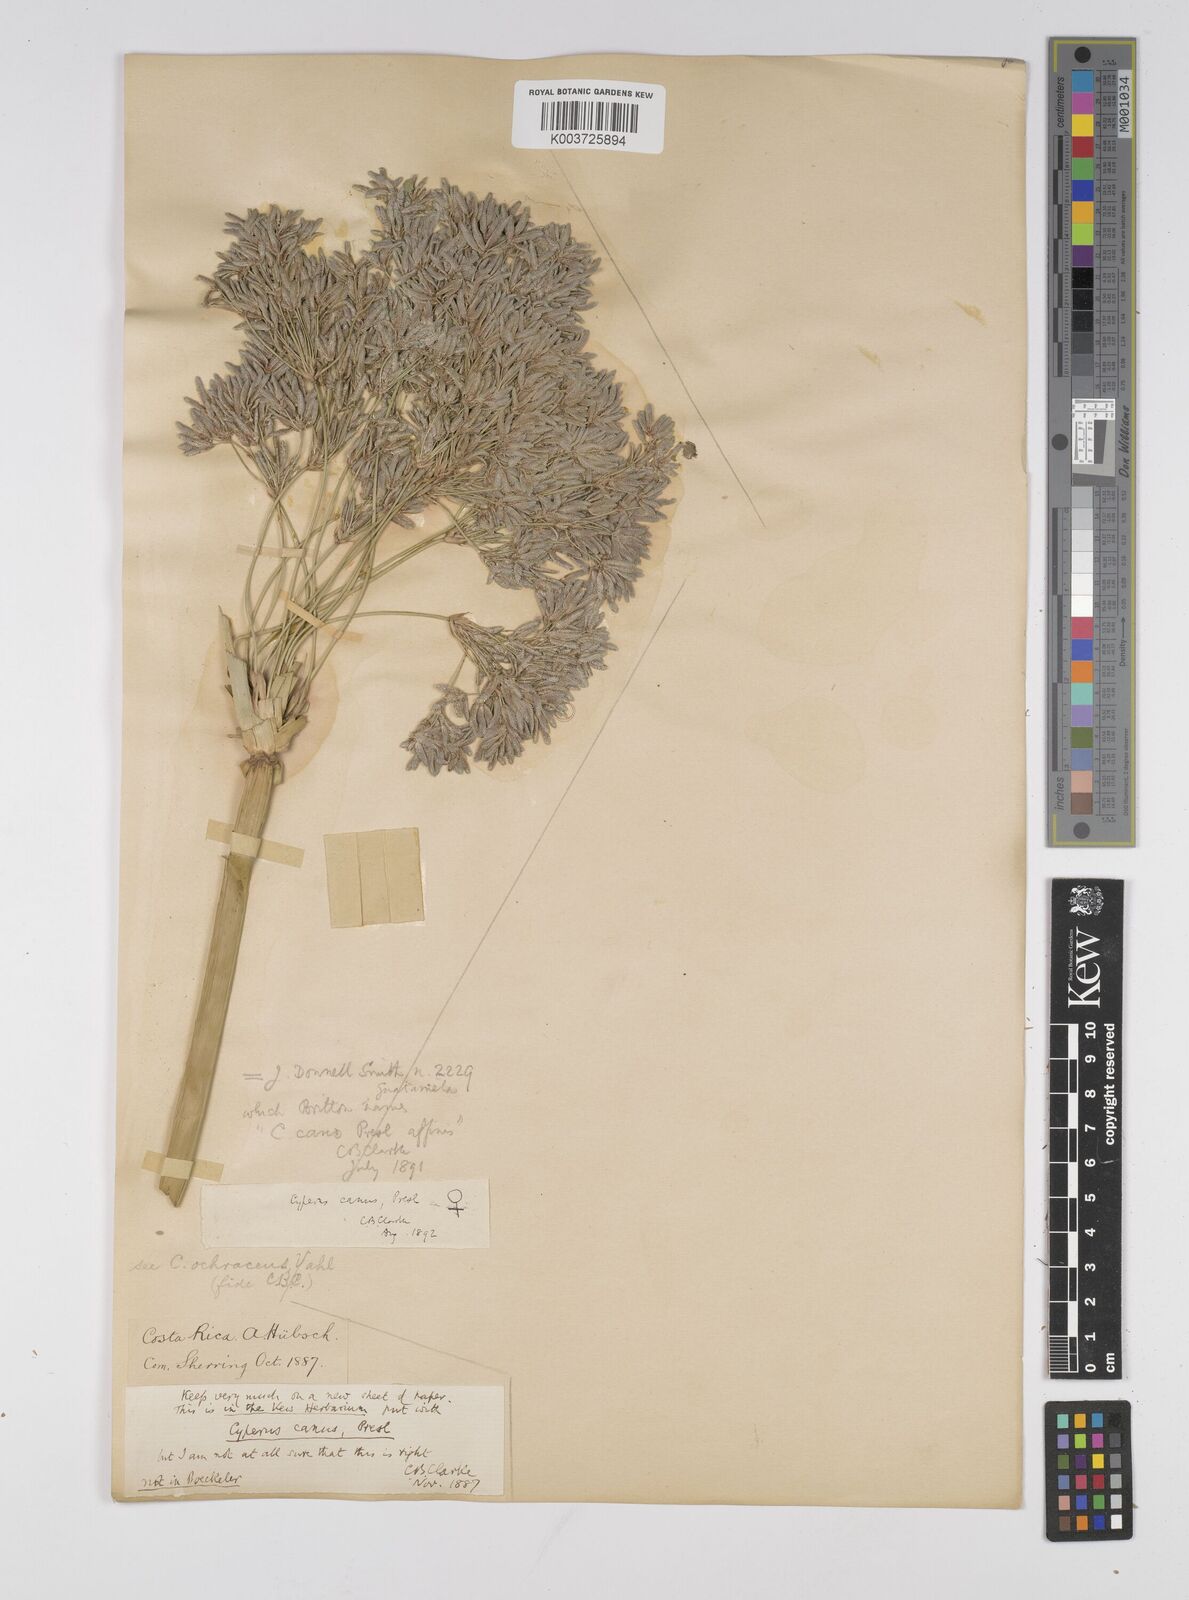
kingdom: Plantae
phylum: Tracheophyta
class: Liliopsida
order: Poales
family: Cyperaceae
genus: Cyperus
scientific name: Cyperus canus
